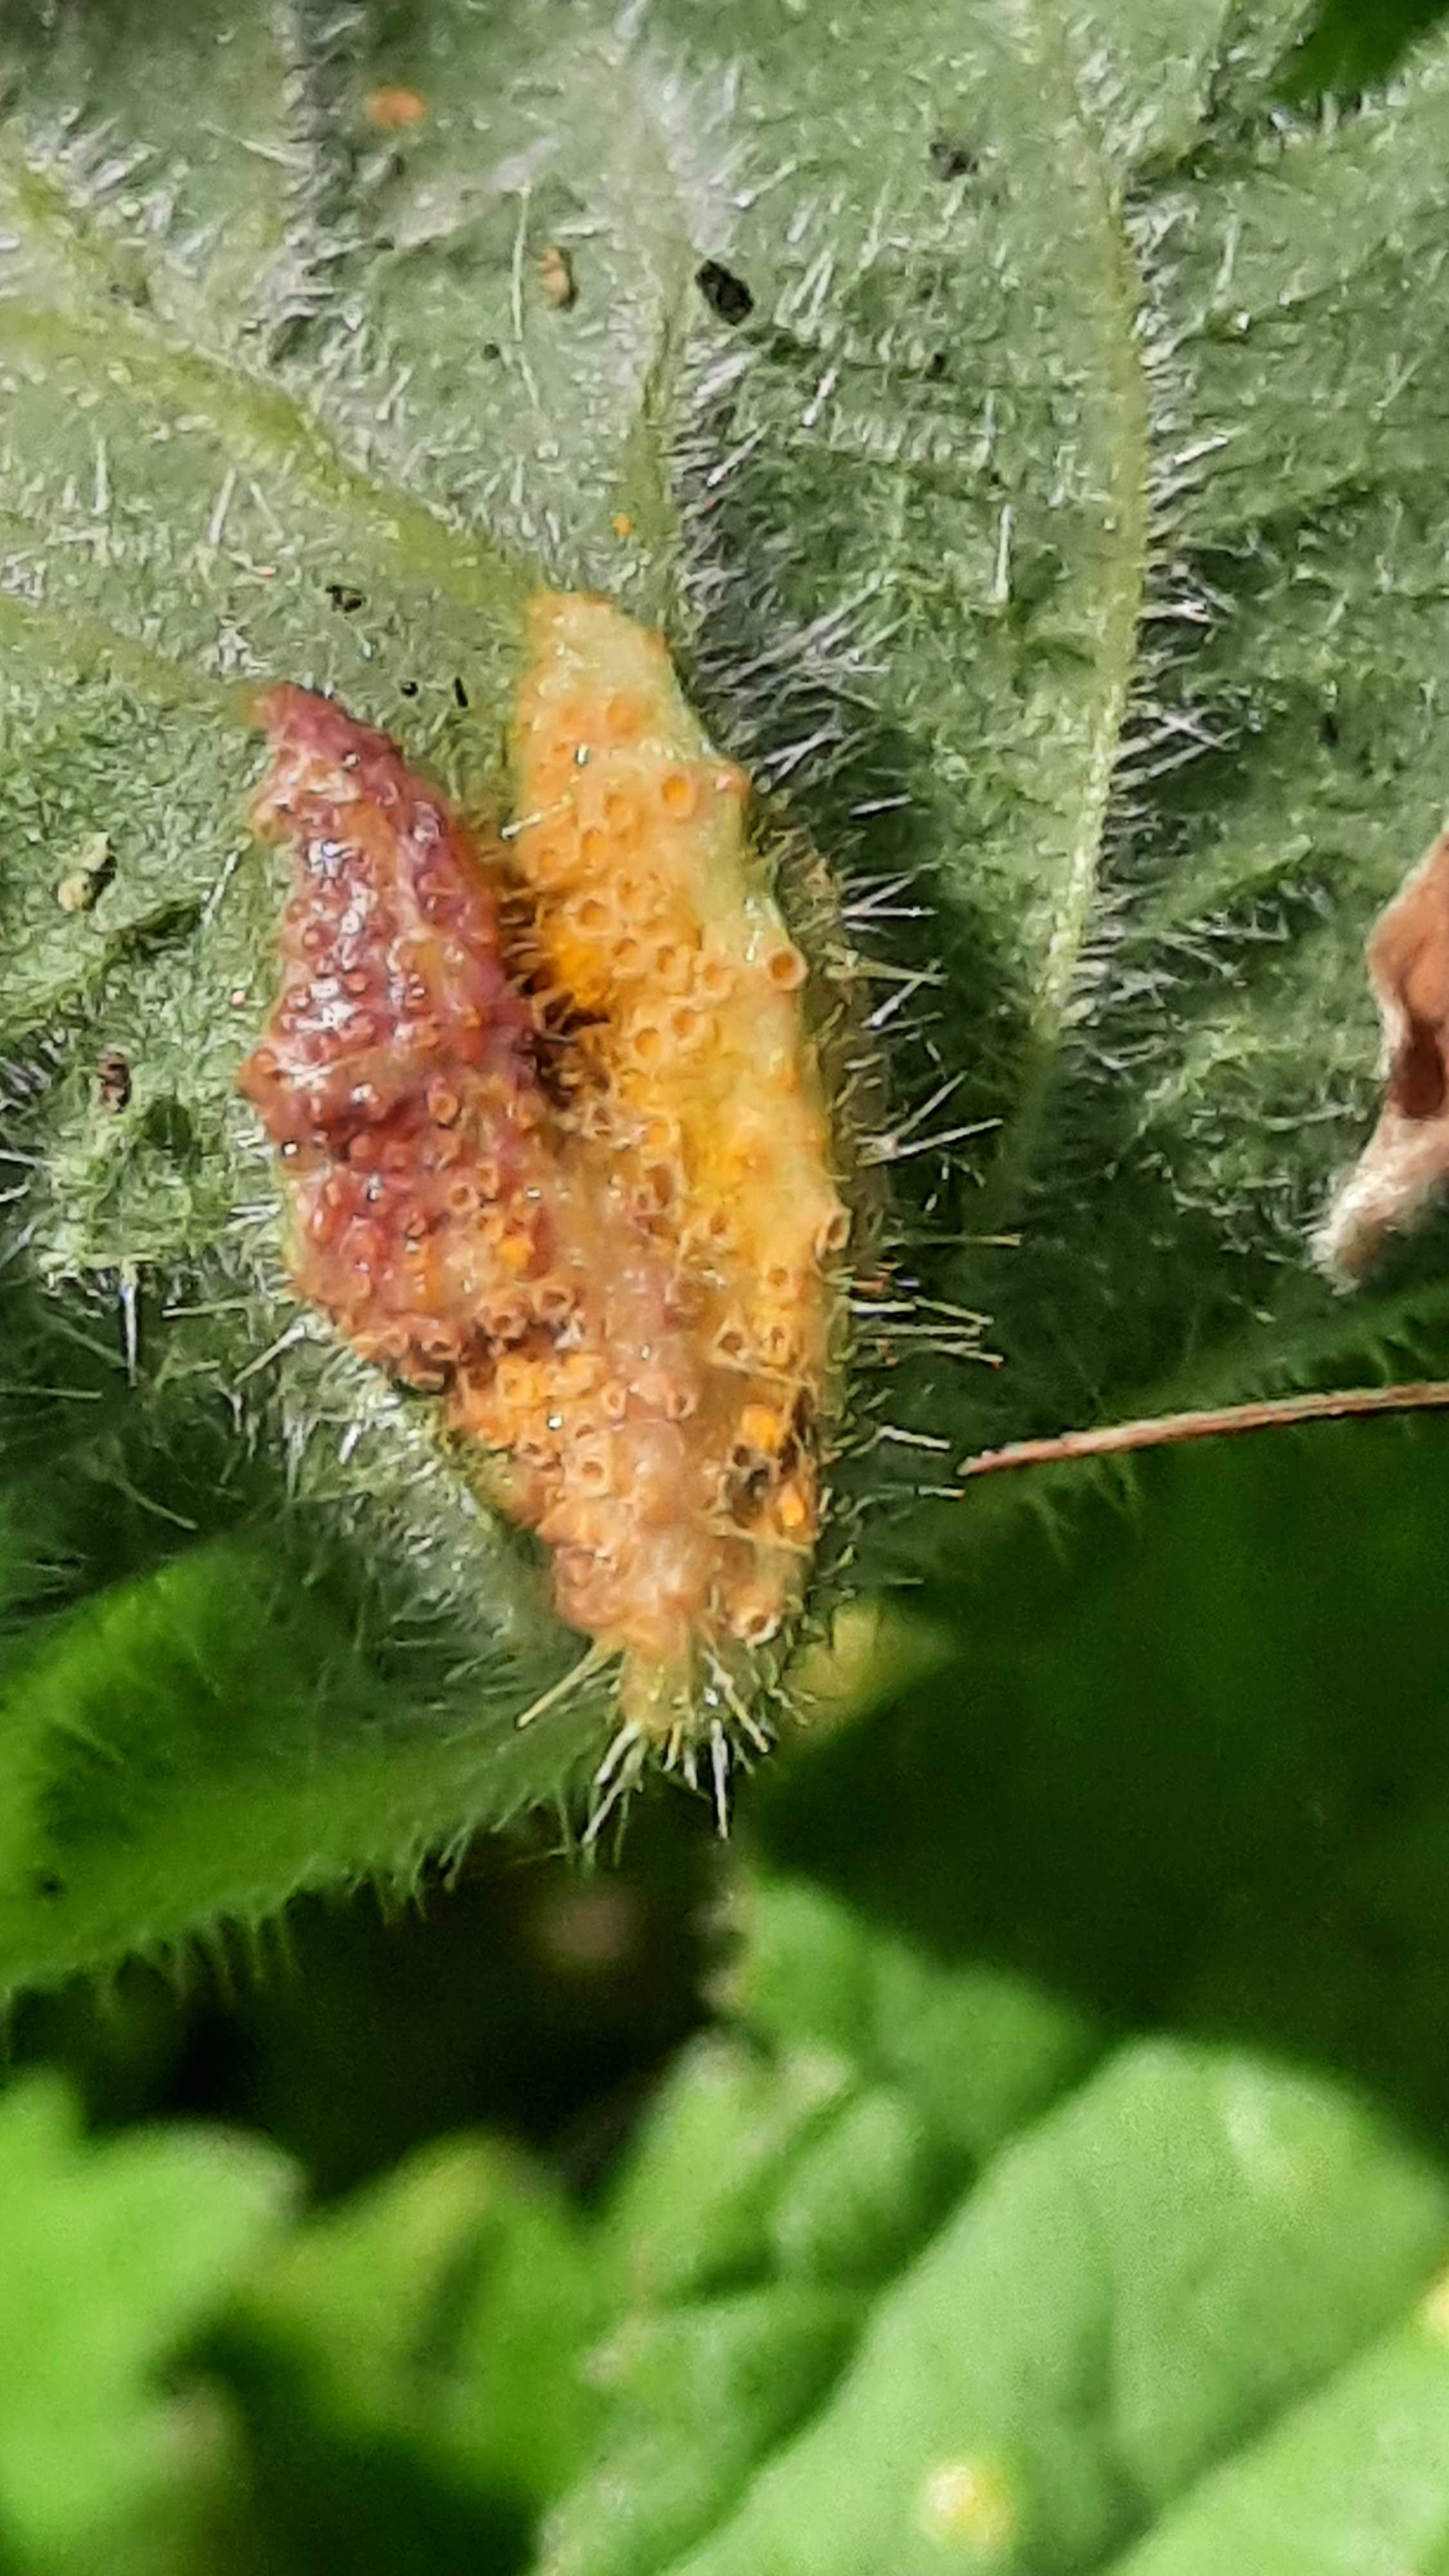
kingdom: Fungi
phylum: Basidiomycota
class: Pucciniomycetes
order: Pucciniales
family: Pucciniaceae
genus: Puccinia
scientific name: Puccinia urticata
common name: nældegalle-tvecellerust
